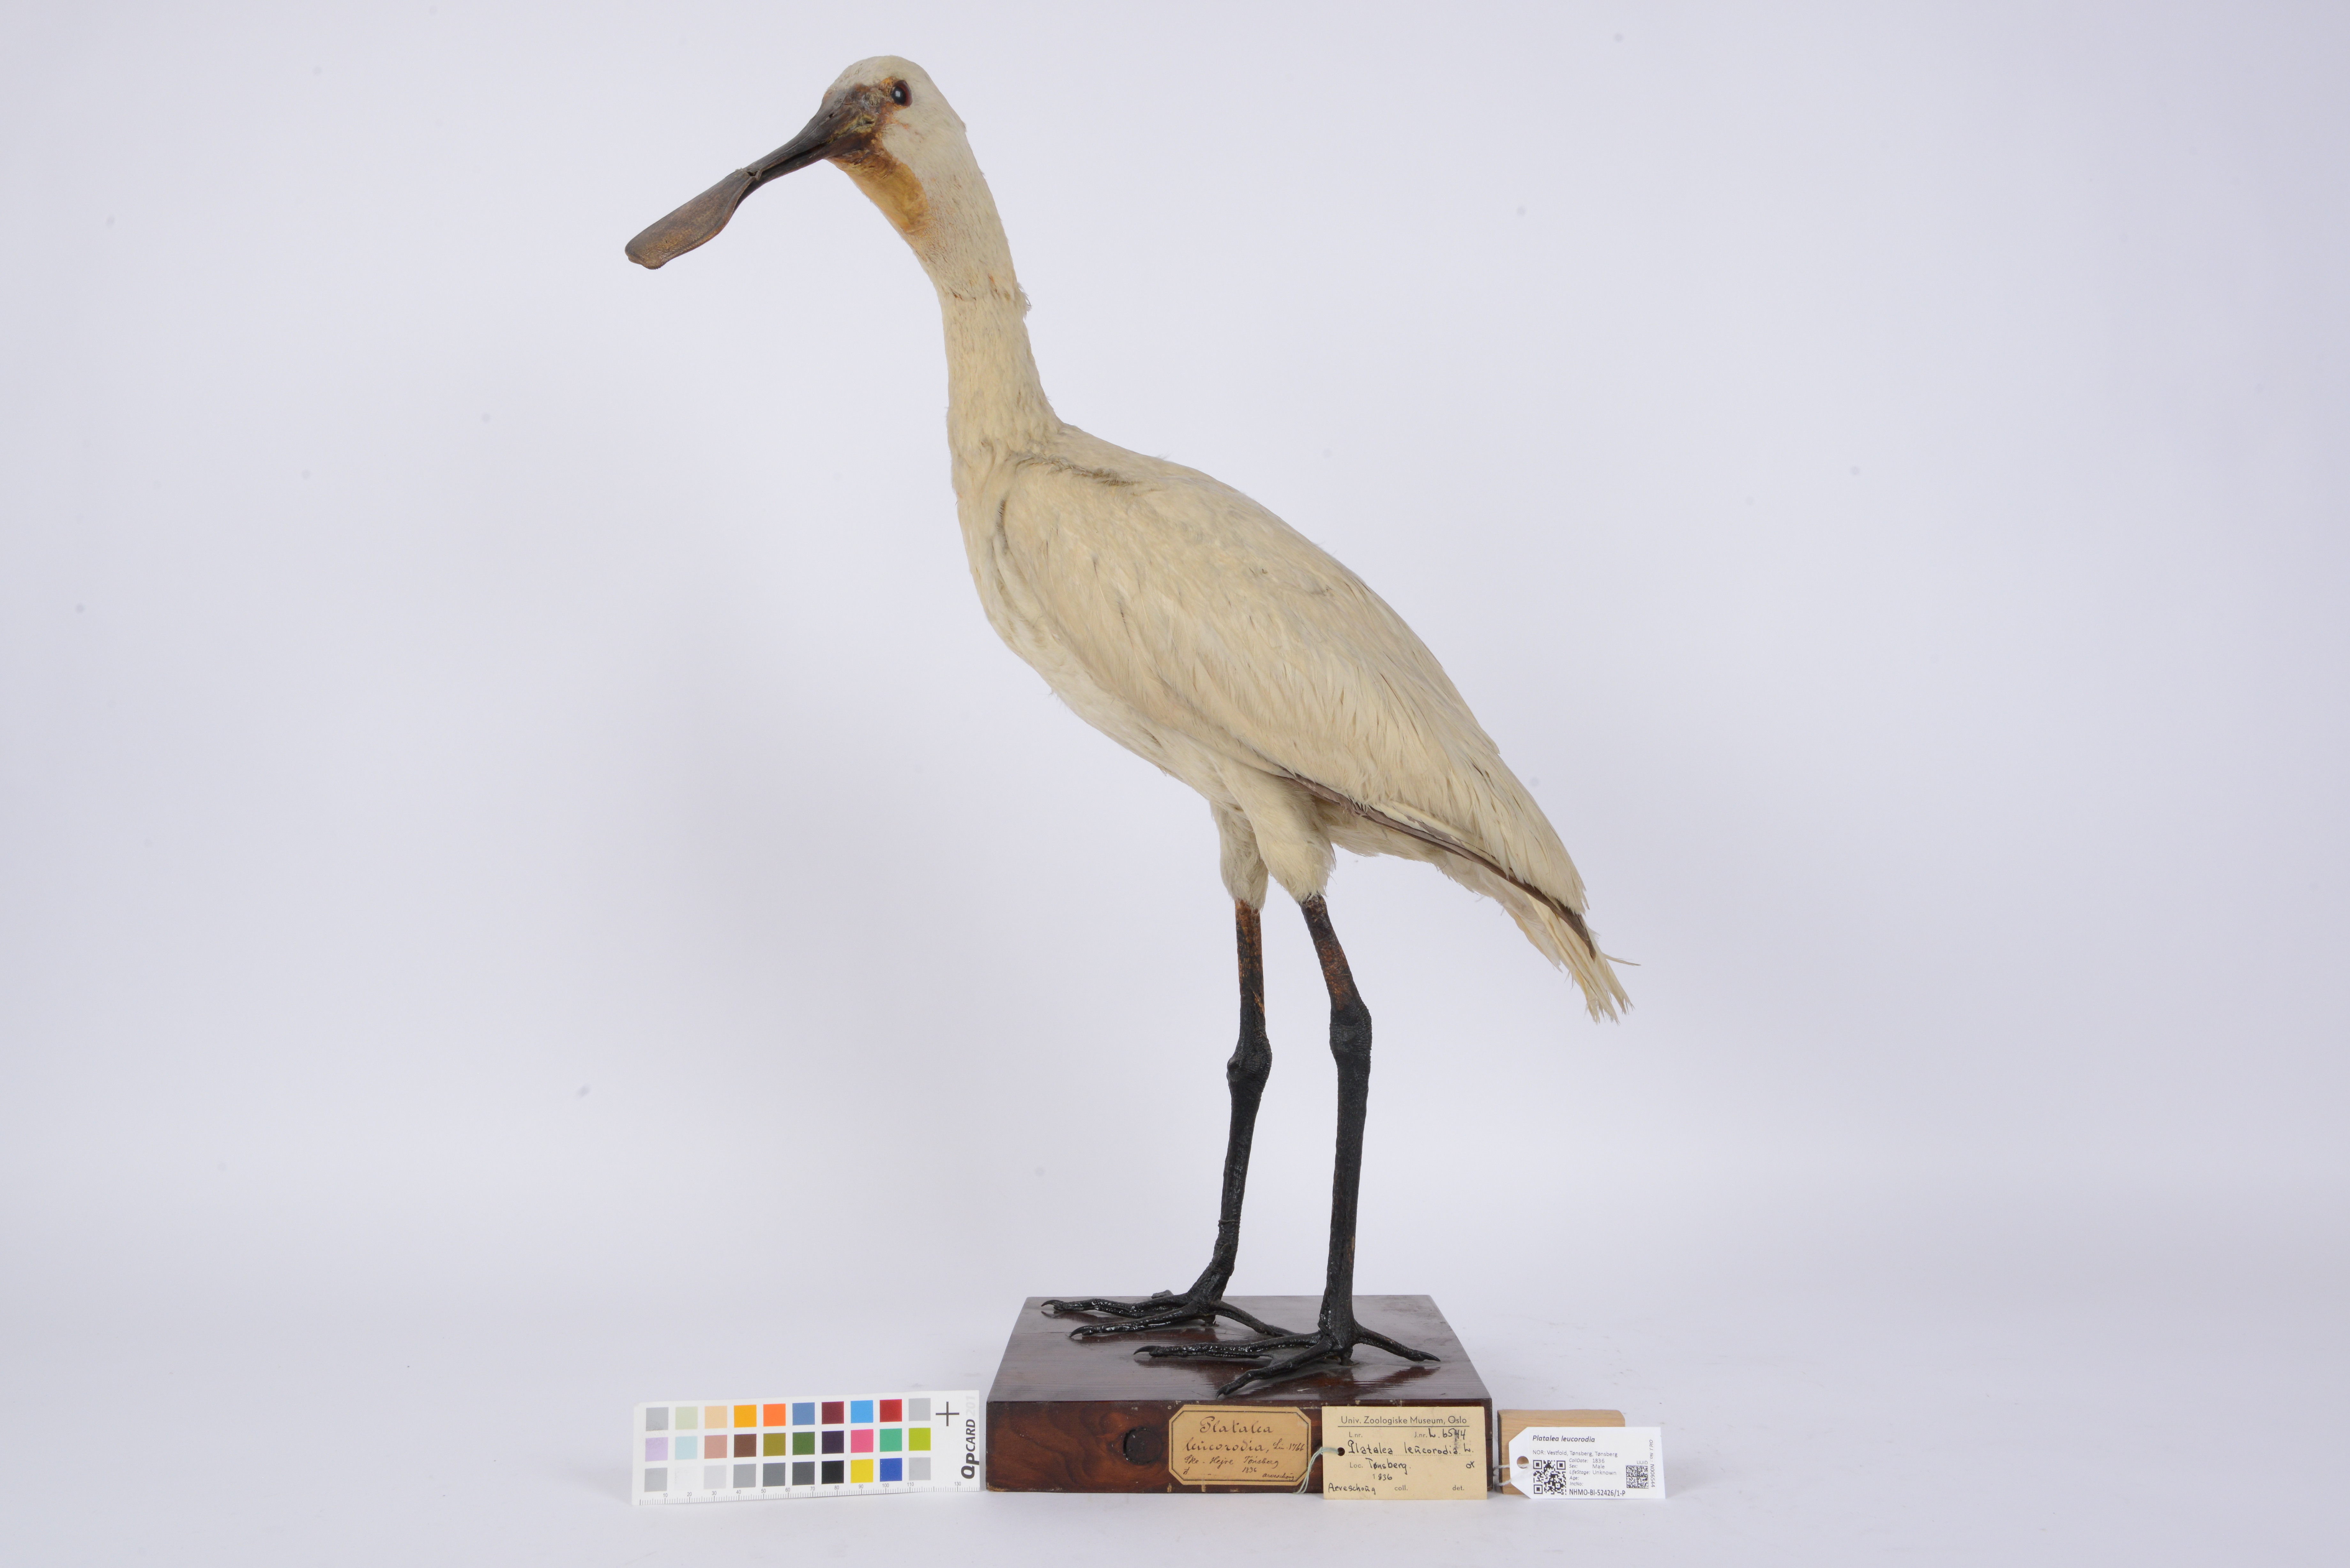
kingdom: Animalia
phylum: Chordata
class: Aves
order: Pelecaniformes
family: Threskiornithidae
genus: Platalea
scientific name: Platalea leucorodia
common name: Eurasian spoonbill
